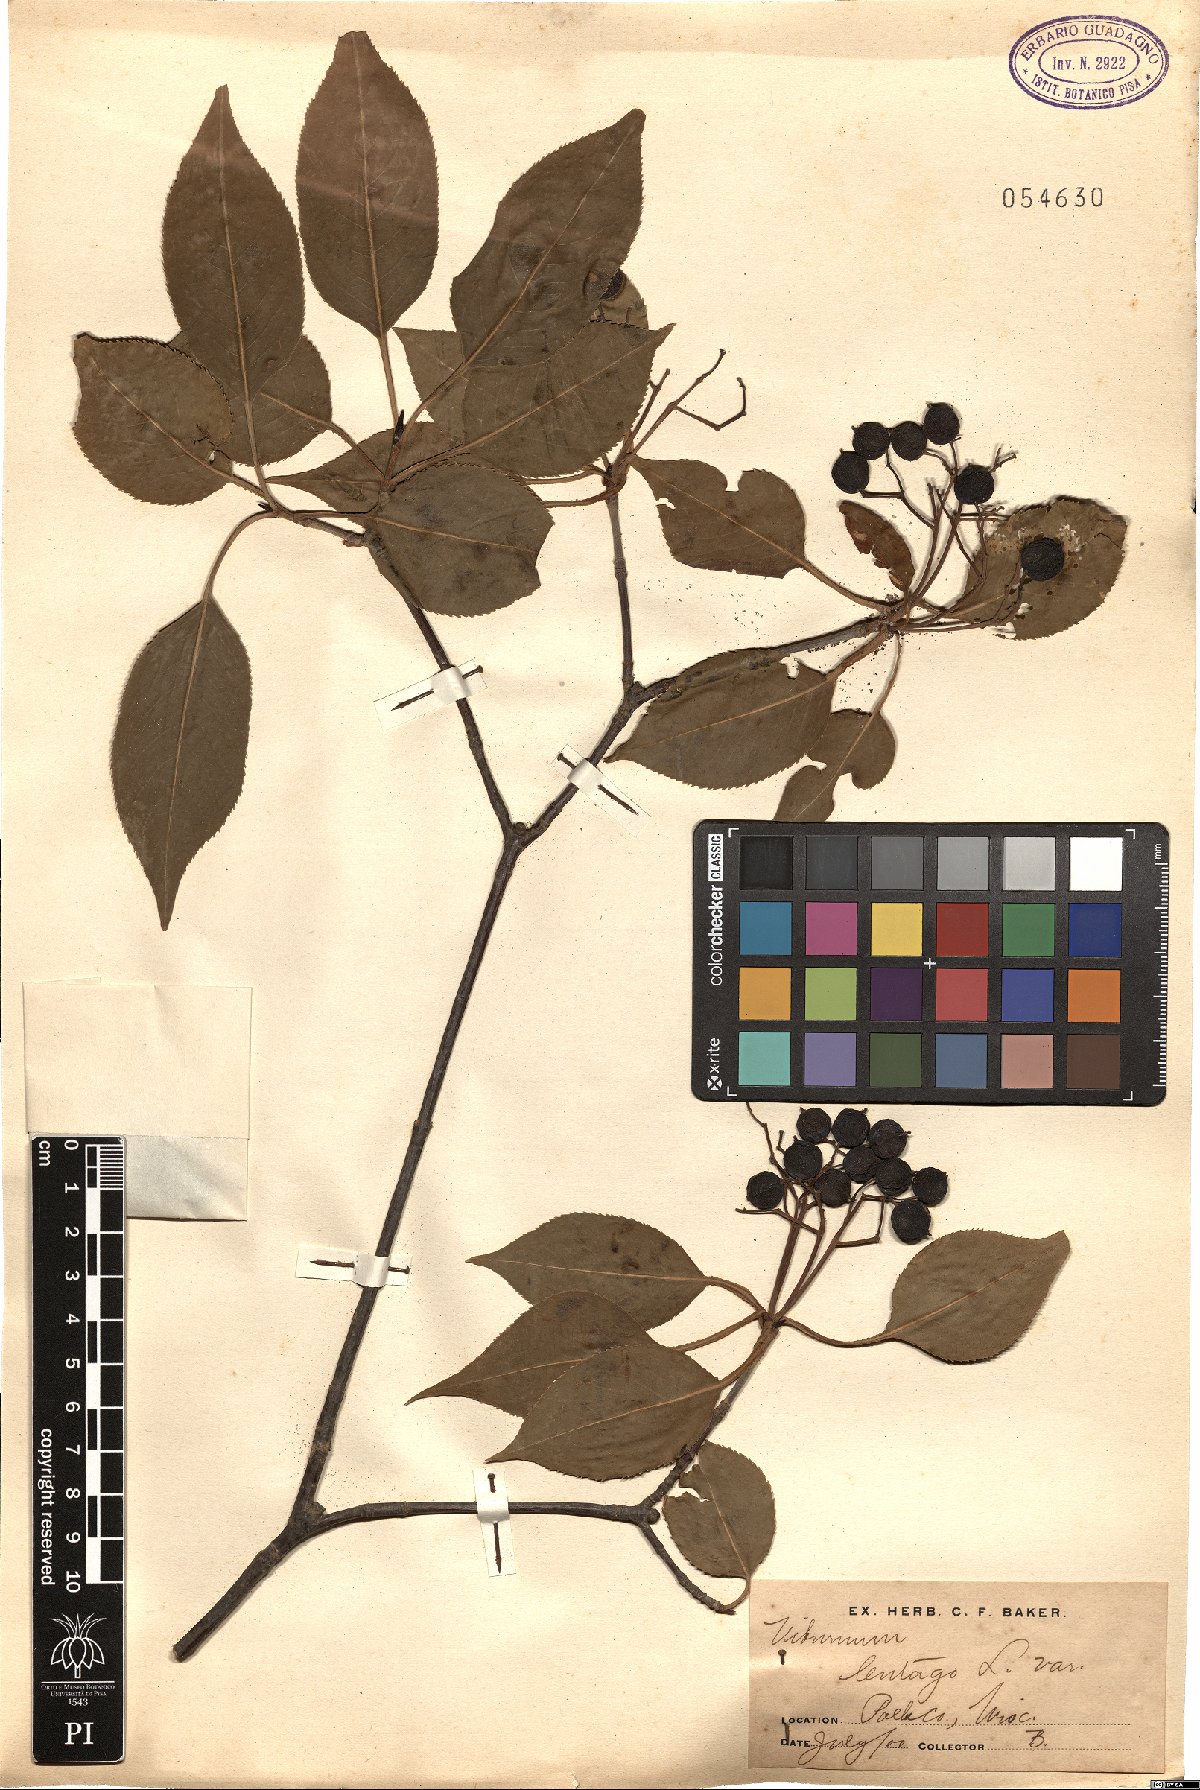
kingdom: Plantae
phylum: Tracheophyta
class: Magnoliopsida
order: Dipsacales
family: Viburnaceae
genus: Viburnum
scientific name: Viburnum lentago
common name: Black haw
